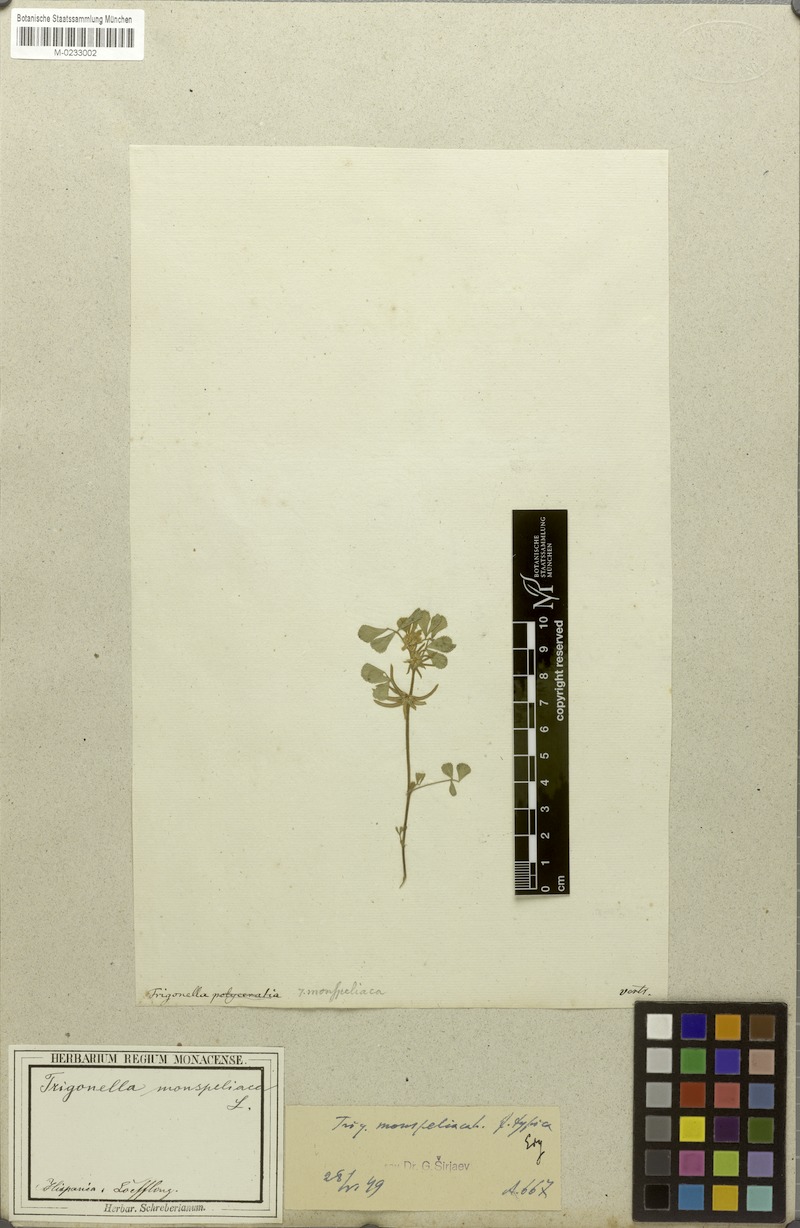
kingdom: Plantae
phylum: Tracheophyta
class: Magnoliopsida
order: Fabales
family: Fabaceae
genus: Medicago
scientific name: Medicago monspeliaca
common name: Hairy medick
